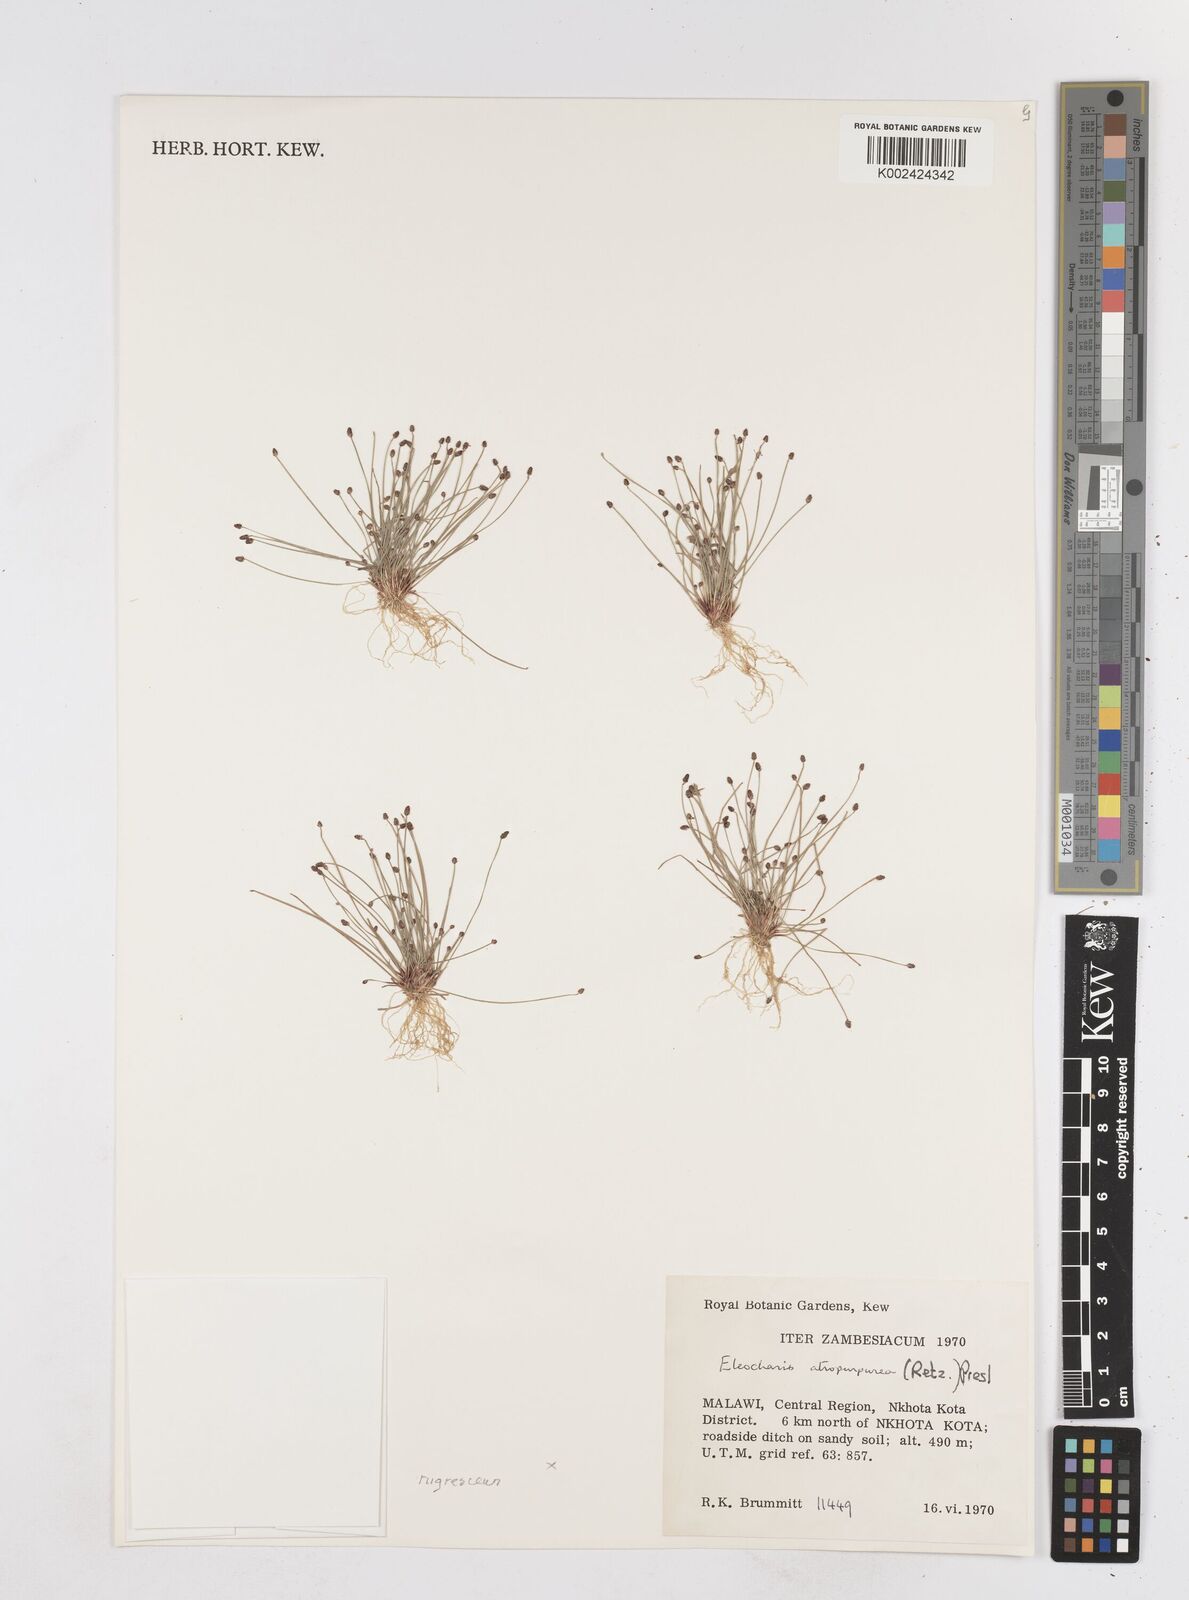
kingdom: Plantae
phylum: Tracheophyta
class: Liliopsida
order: Poales
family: Cyperaceae
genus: Eleocharis
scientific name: Eleocharis atropurpurea
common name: Purple spikerush
